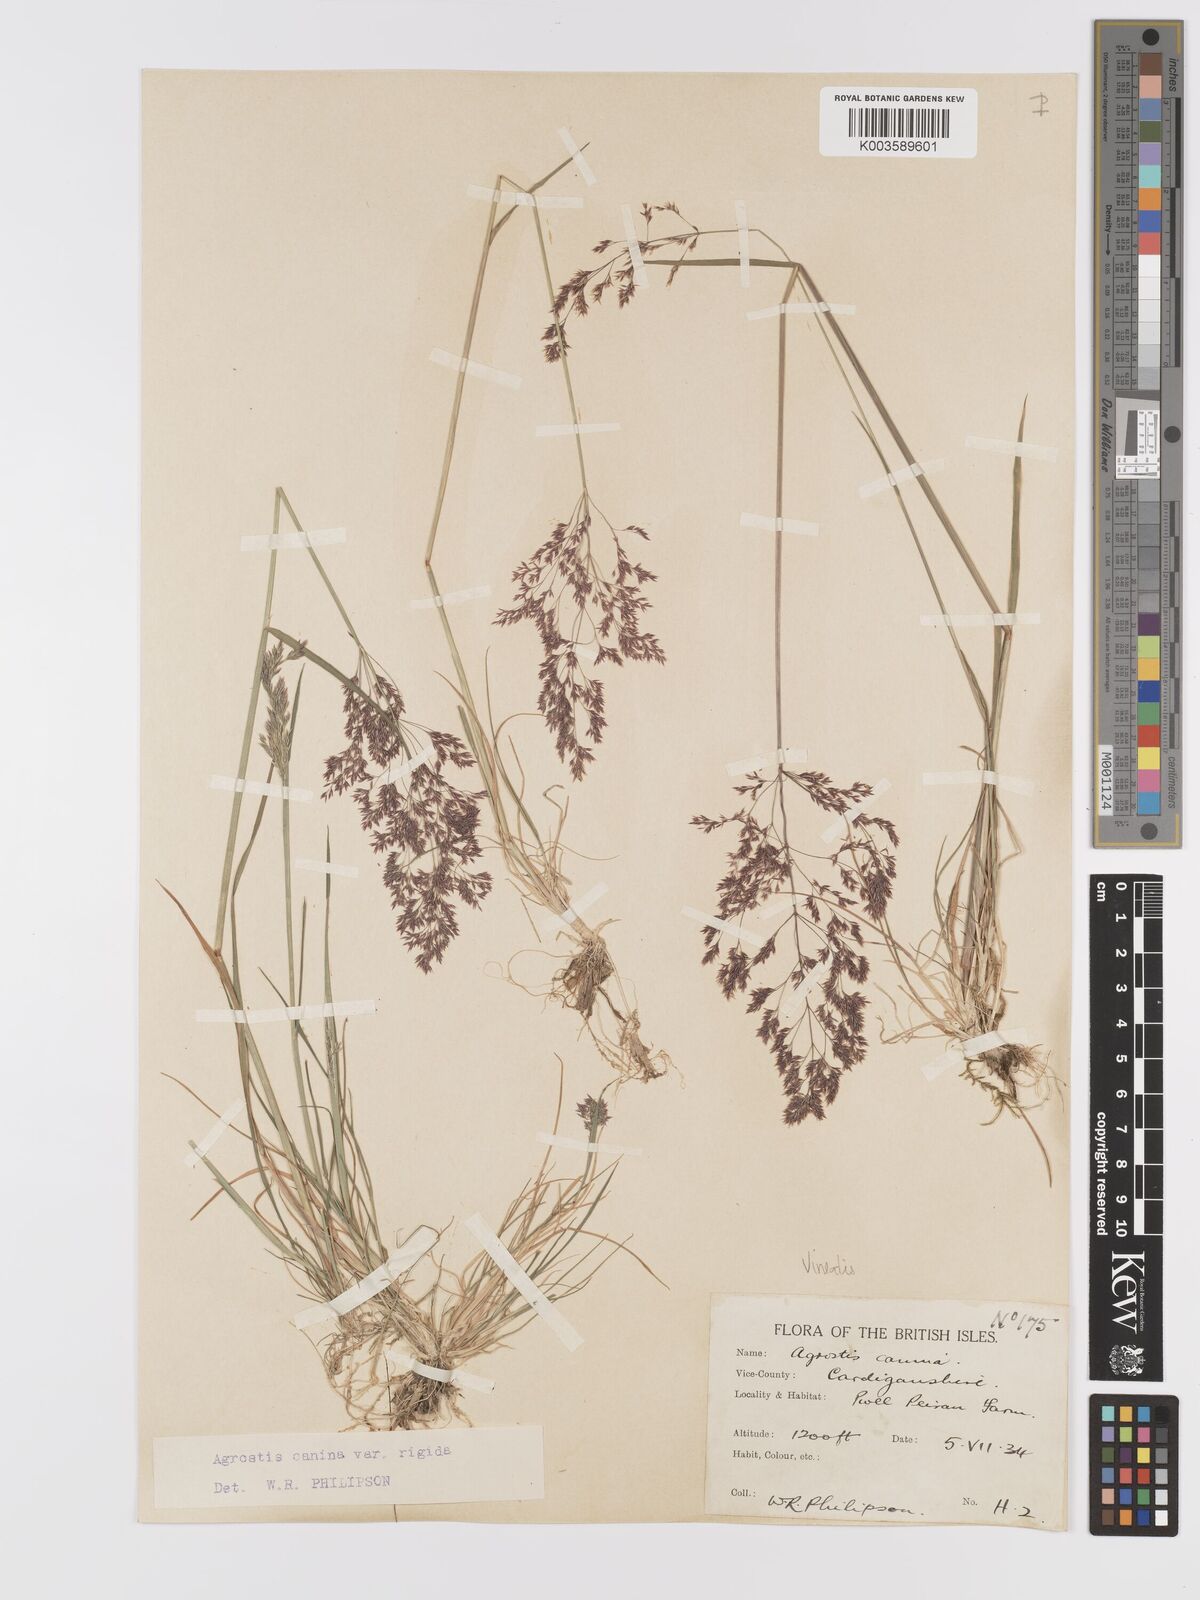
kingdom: Plantae
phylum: Tracheophyta
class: Liliopsida
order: Poales
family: Poaceae
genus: Agrostis
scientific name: Agrostis
